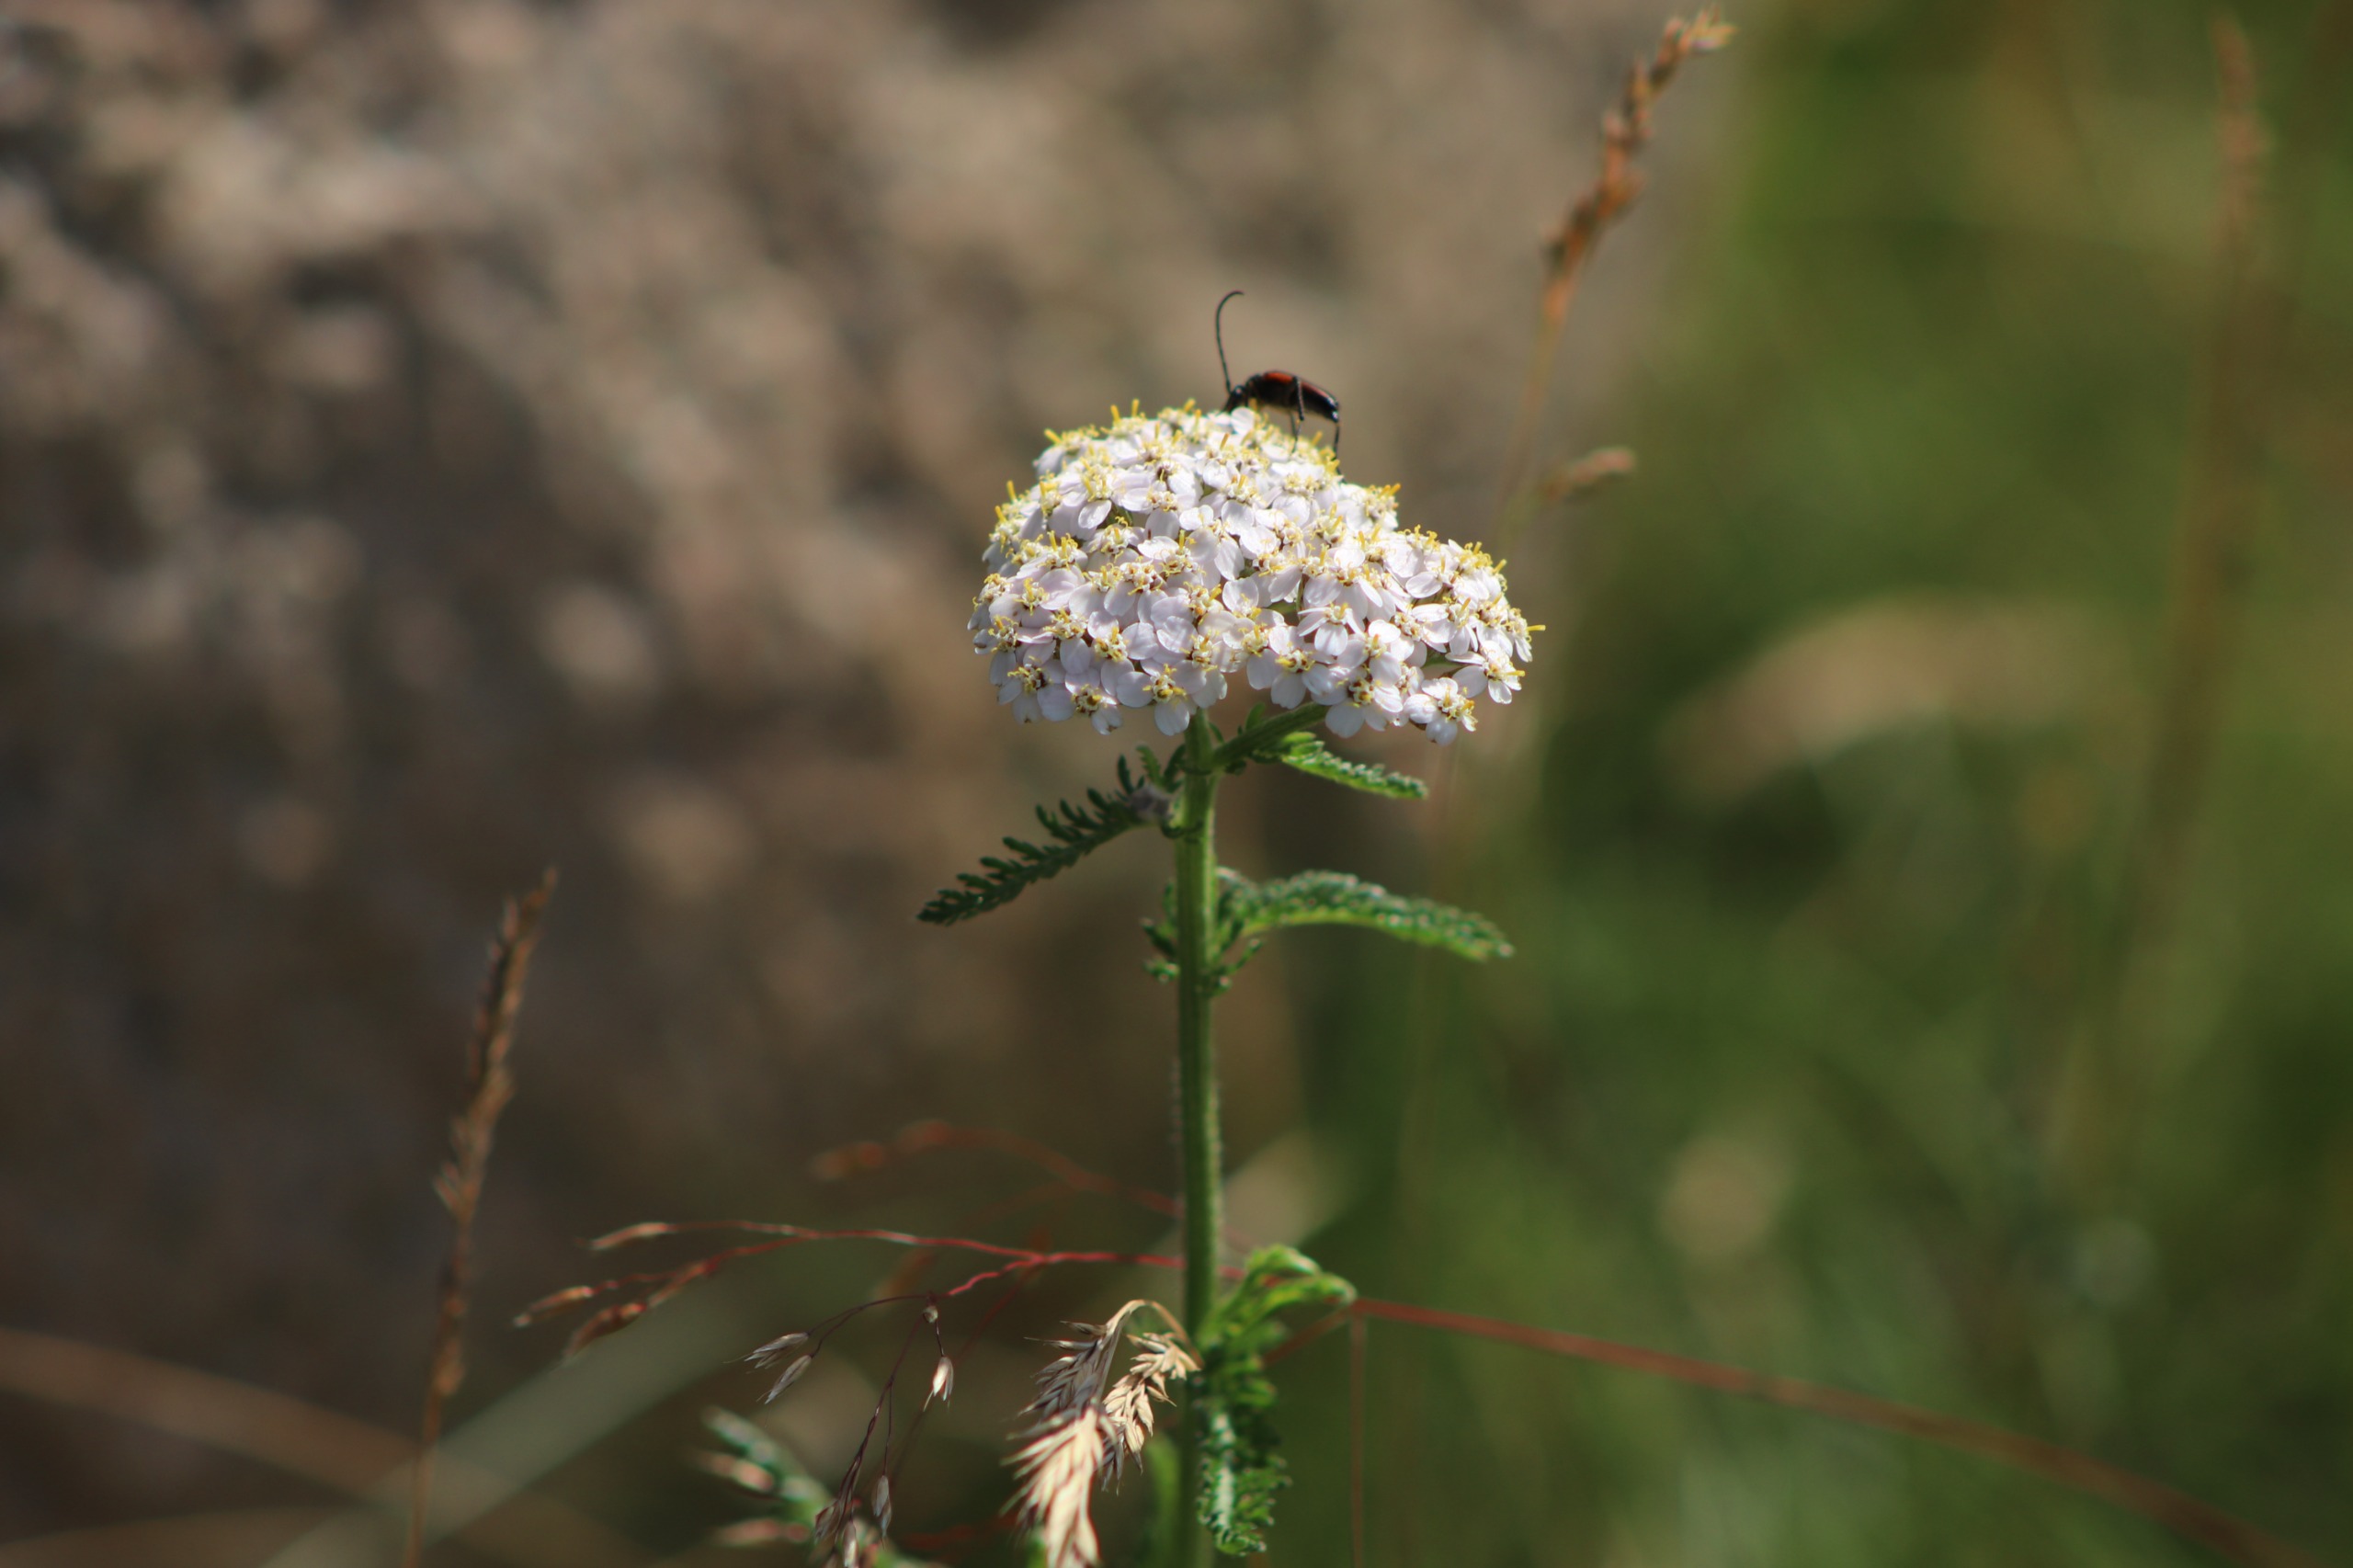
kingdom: Plantae
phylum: Tracheophyta
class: Magnoliopsida
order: Asterales
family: Asteraceae
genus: Achillea
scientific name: Achillea millefolium
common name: Almindelig røllike
